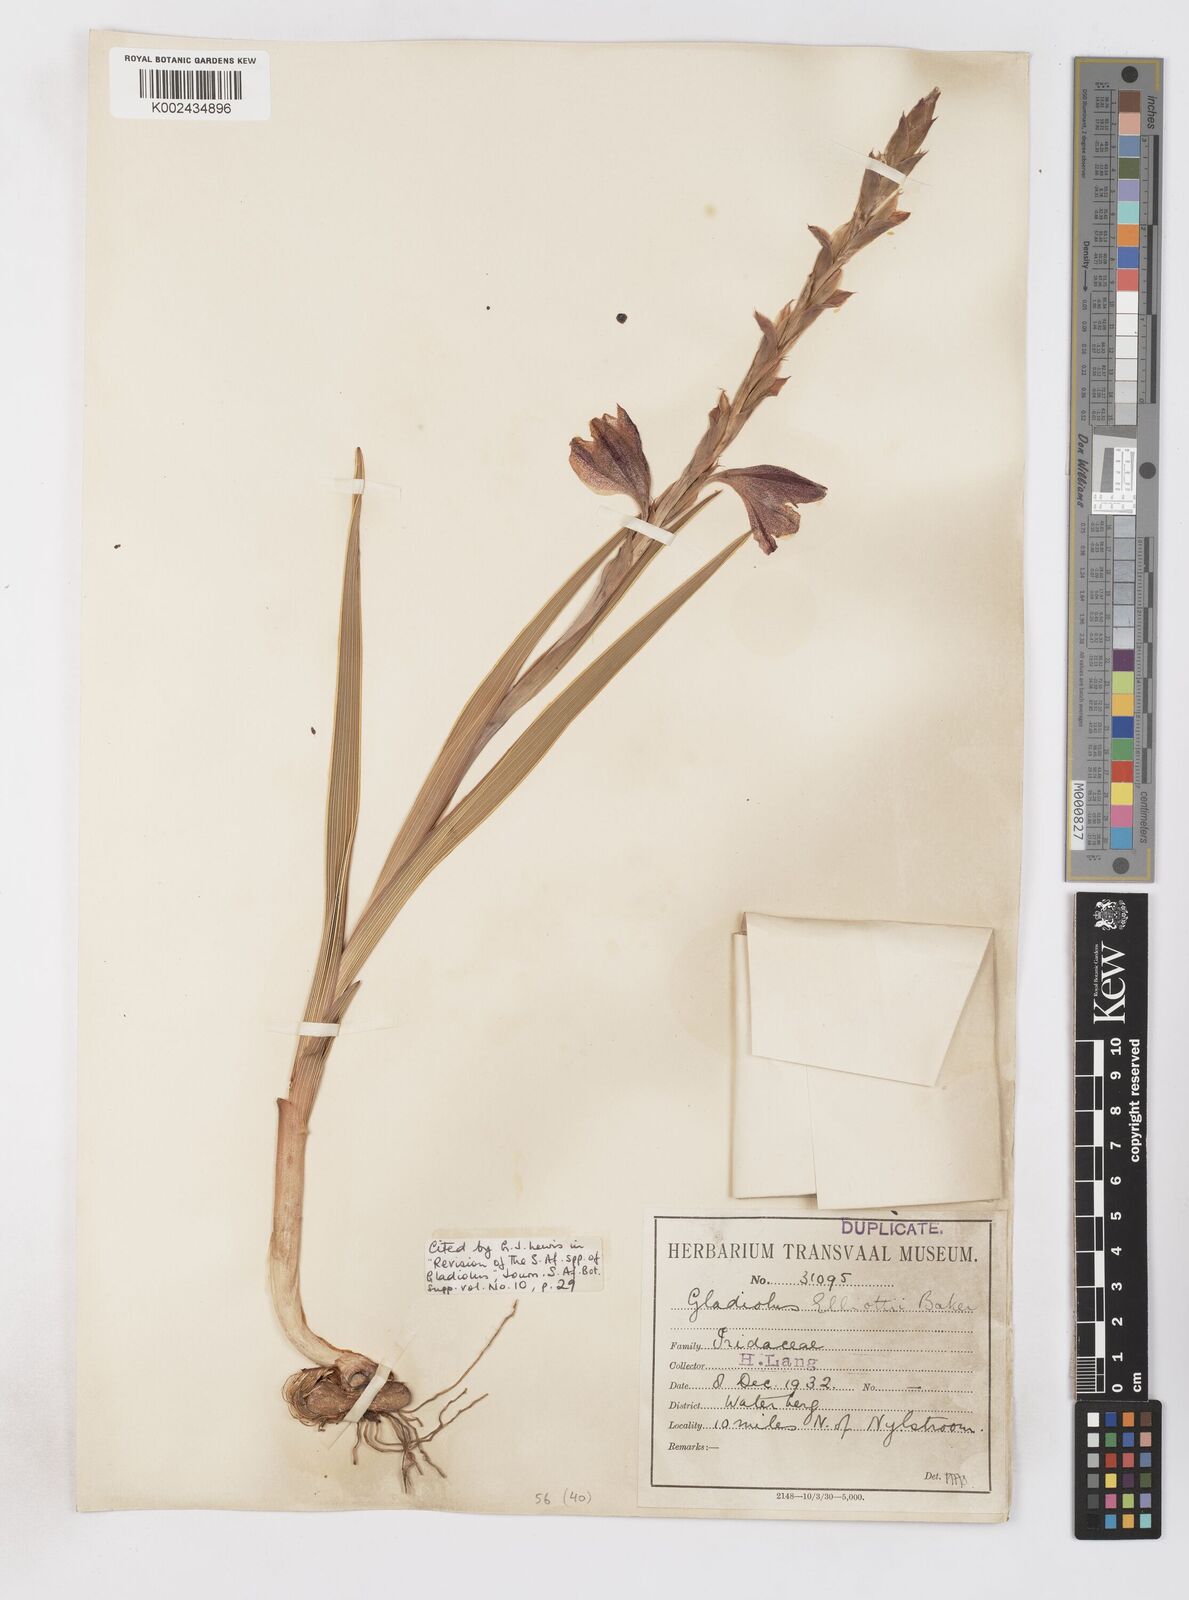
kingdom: Plantae
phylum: Tracheophyta
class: Liliopsida
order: Asparagales
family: Iridaceae
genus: Gladiolus
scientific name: Gladiolus elliotii
